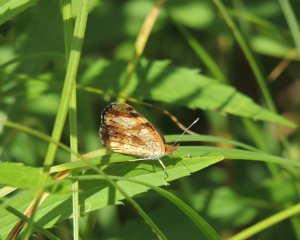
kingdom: Animalia
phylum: Arthropoda
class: Insecta
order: Lepidoptera
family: Nymphalidae
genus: Phyciodes
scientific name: Phyciodes tharos
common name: Pearl Crescent
